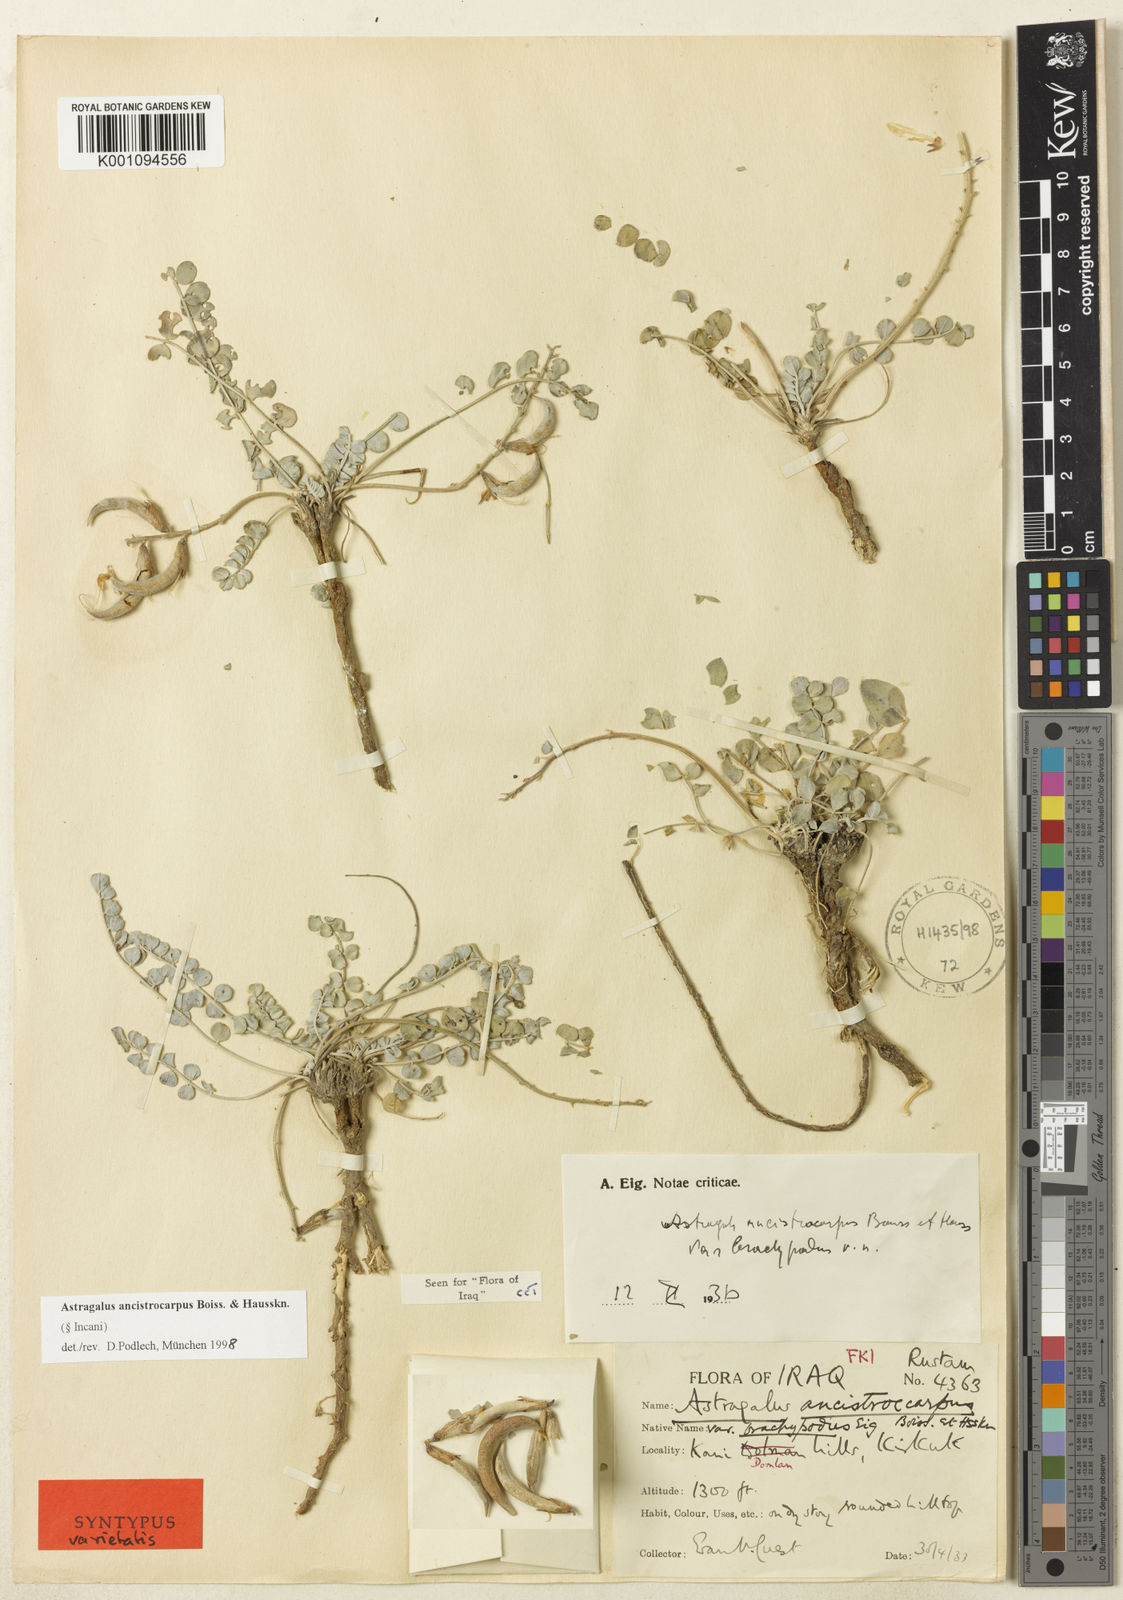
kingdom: Plantae
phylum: Tracheophyta
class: Magnoliopsida
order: Fabales
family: Fabaceae
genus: Astragalus
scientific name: Astragalus
